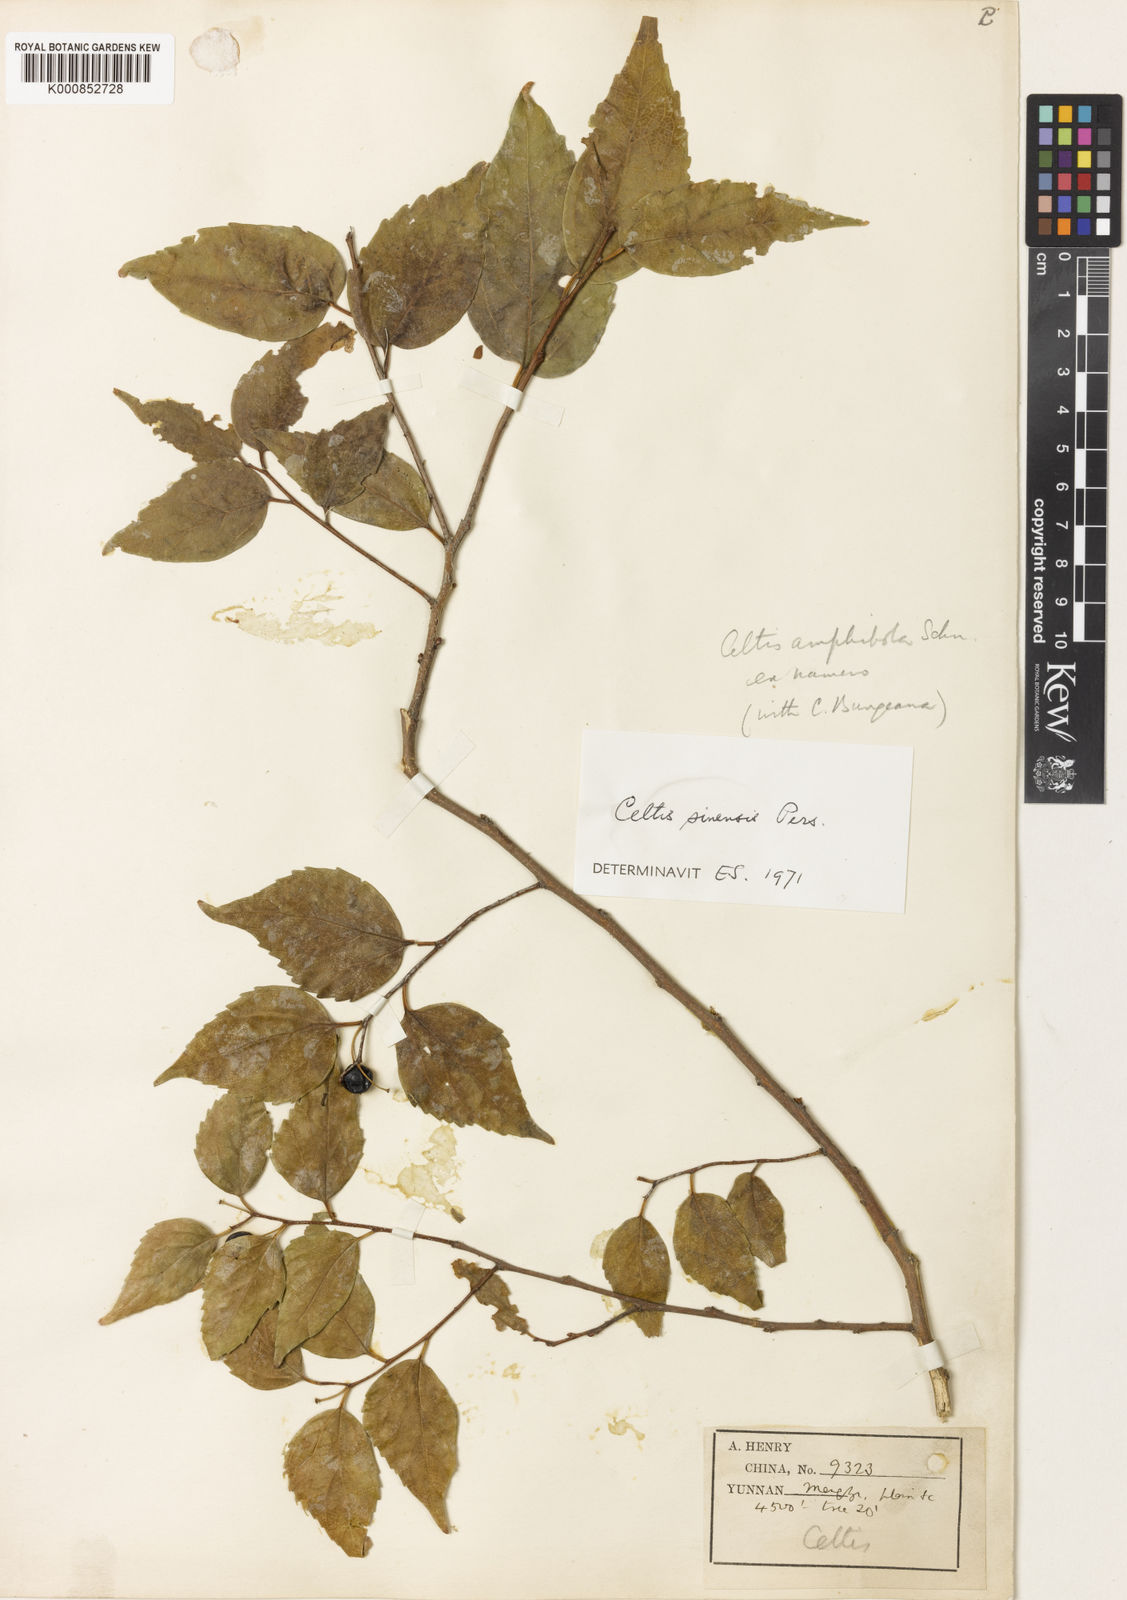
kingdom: Plantae
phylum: Tracheophyta
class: Magnoliopsida
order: Rosales
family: Cannabaceae
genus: Celtis
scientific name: Celtis sinensis
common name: Chinese hackberry
